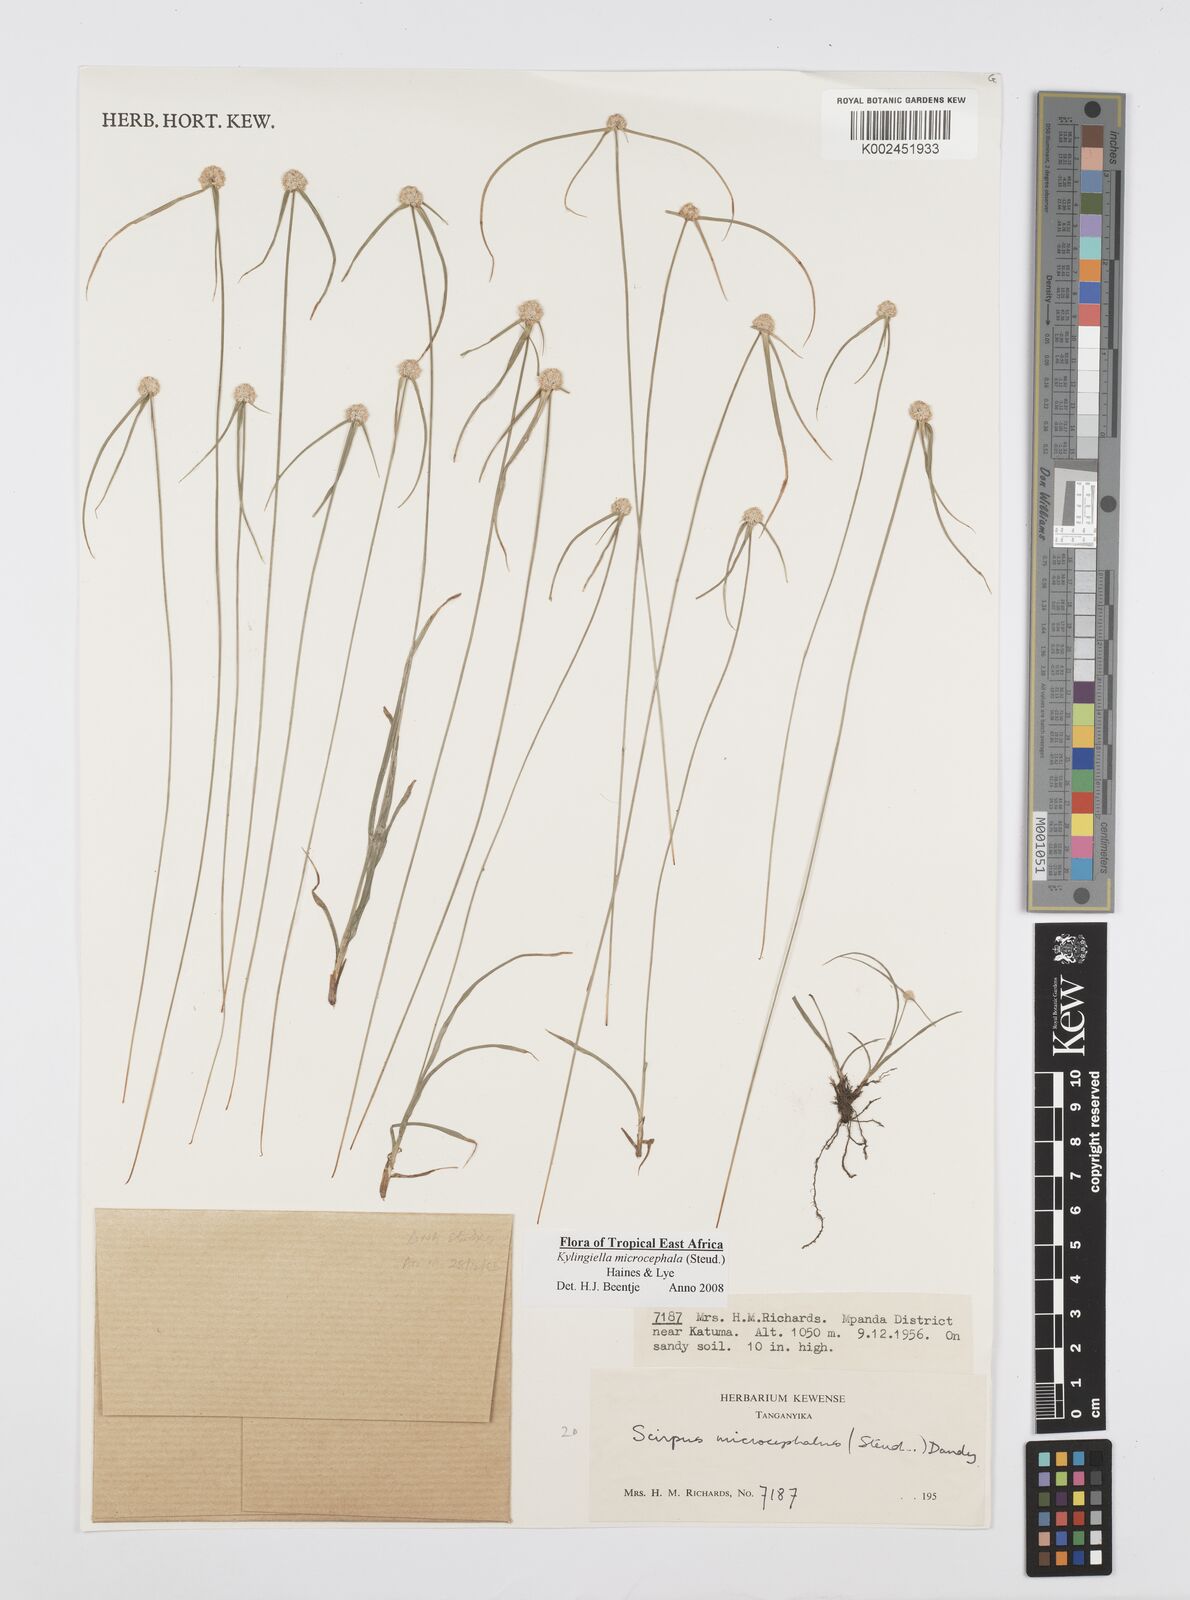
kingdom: Plantae
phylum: Tracheophyta
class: Liliopsida
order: Poales
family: Cyperaceae
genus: Cyperus
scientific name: Cyperus microcephalus
